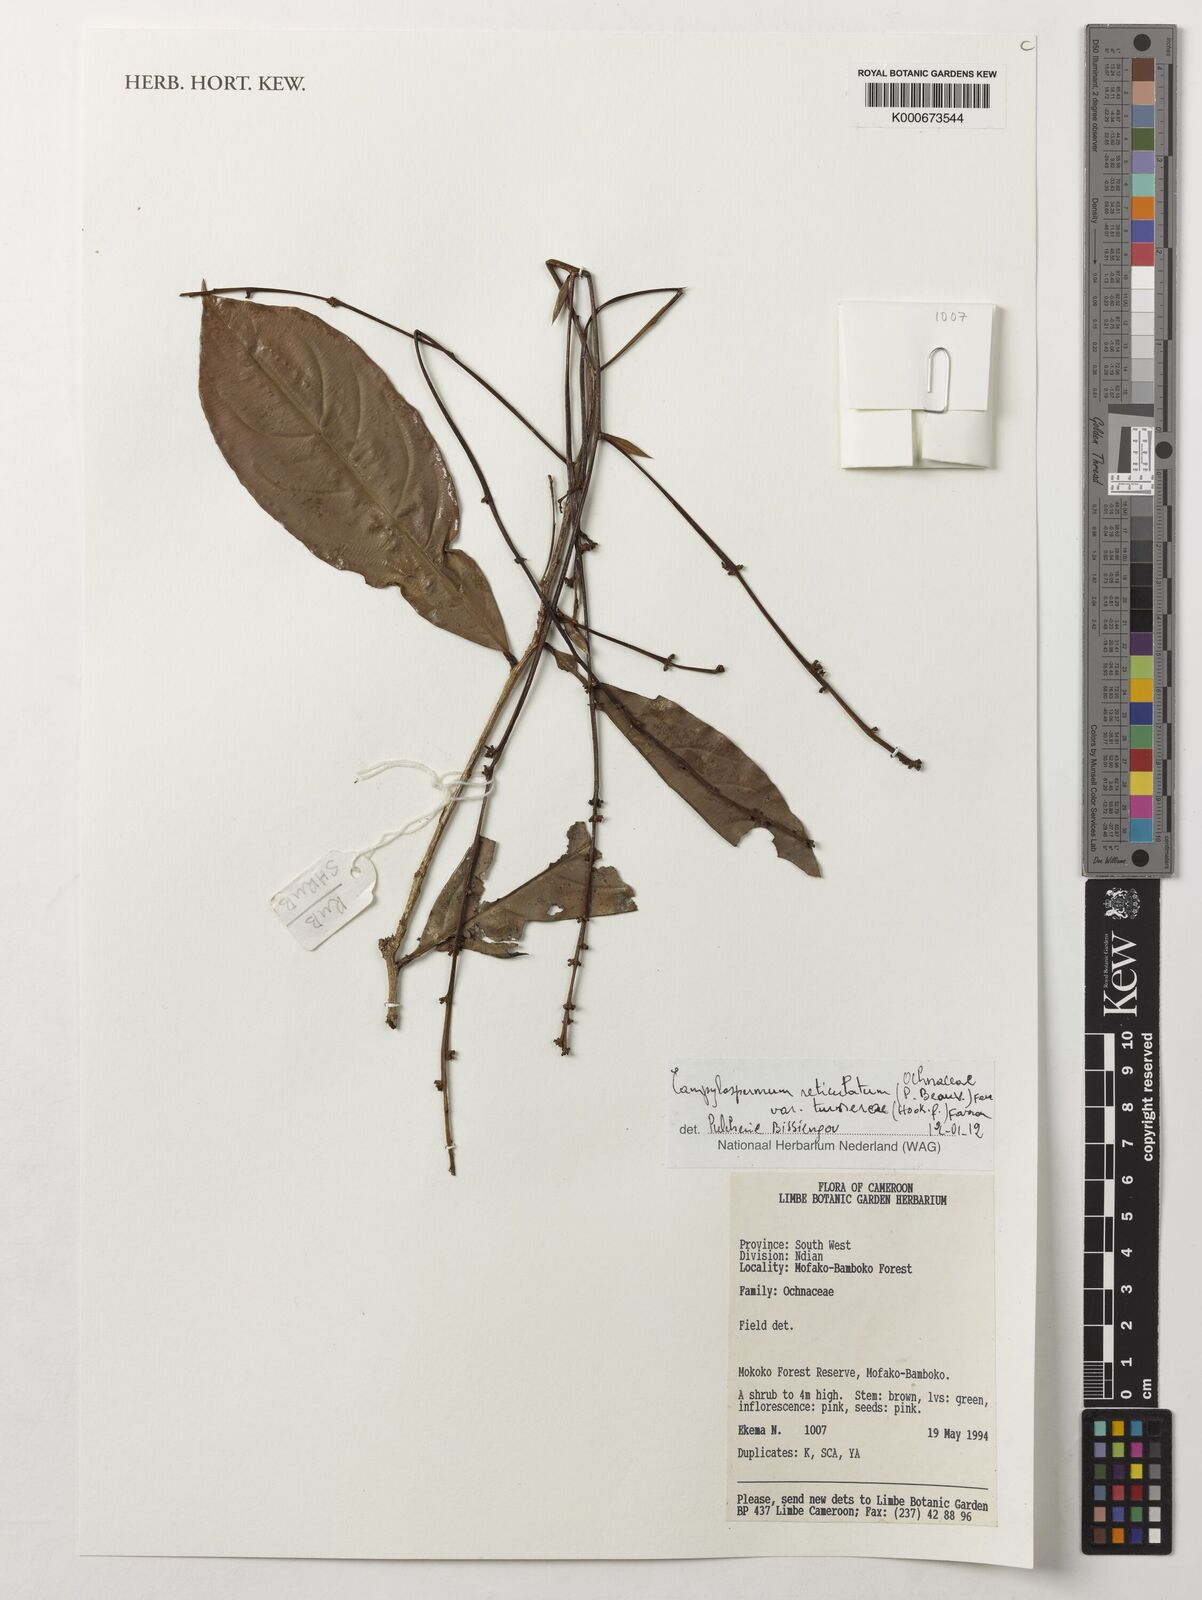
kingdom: Plantae
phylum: Tracheophyta
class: Magnoliopsida
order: Malpighiales
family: Ochnaceae
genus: Campylospermum
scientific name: Campylospermum reticulatum
